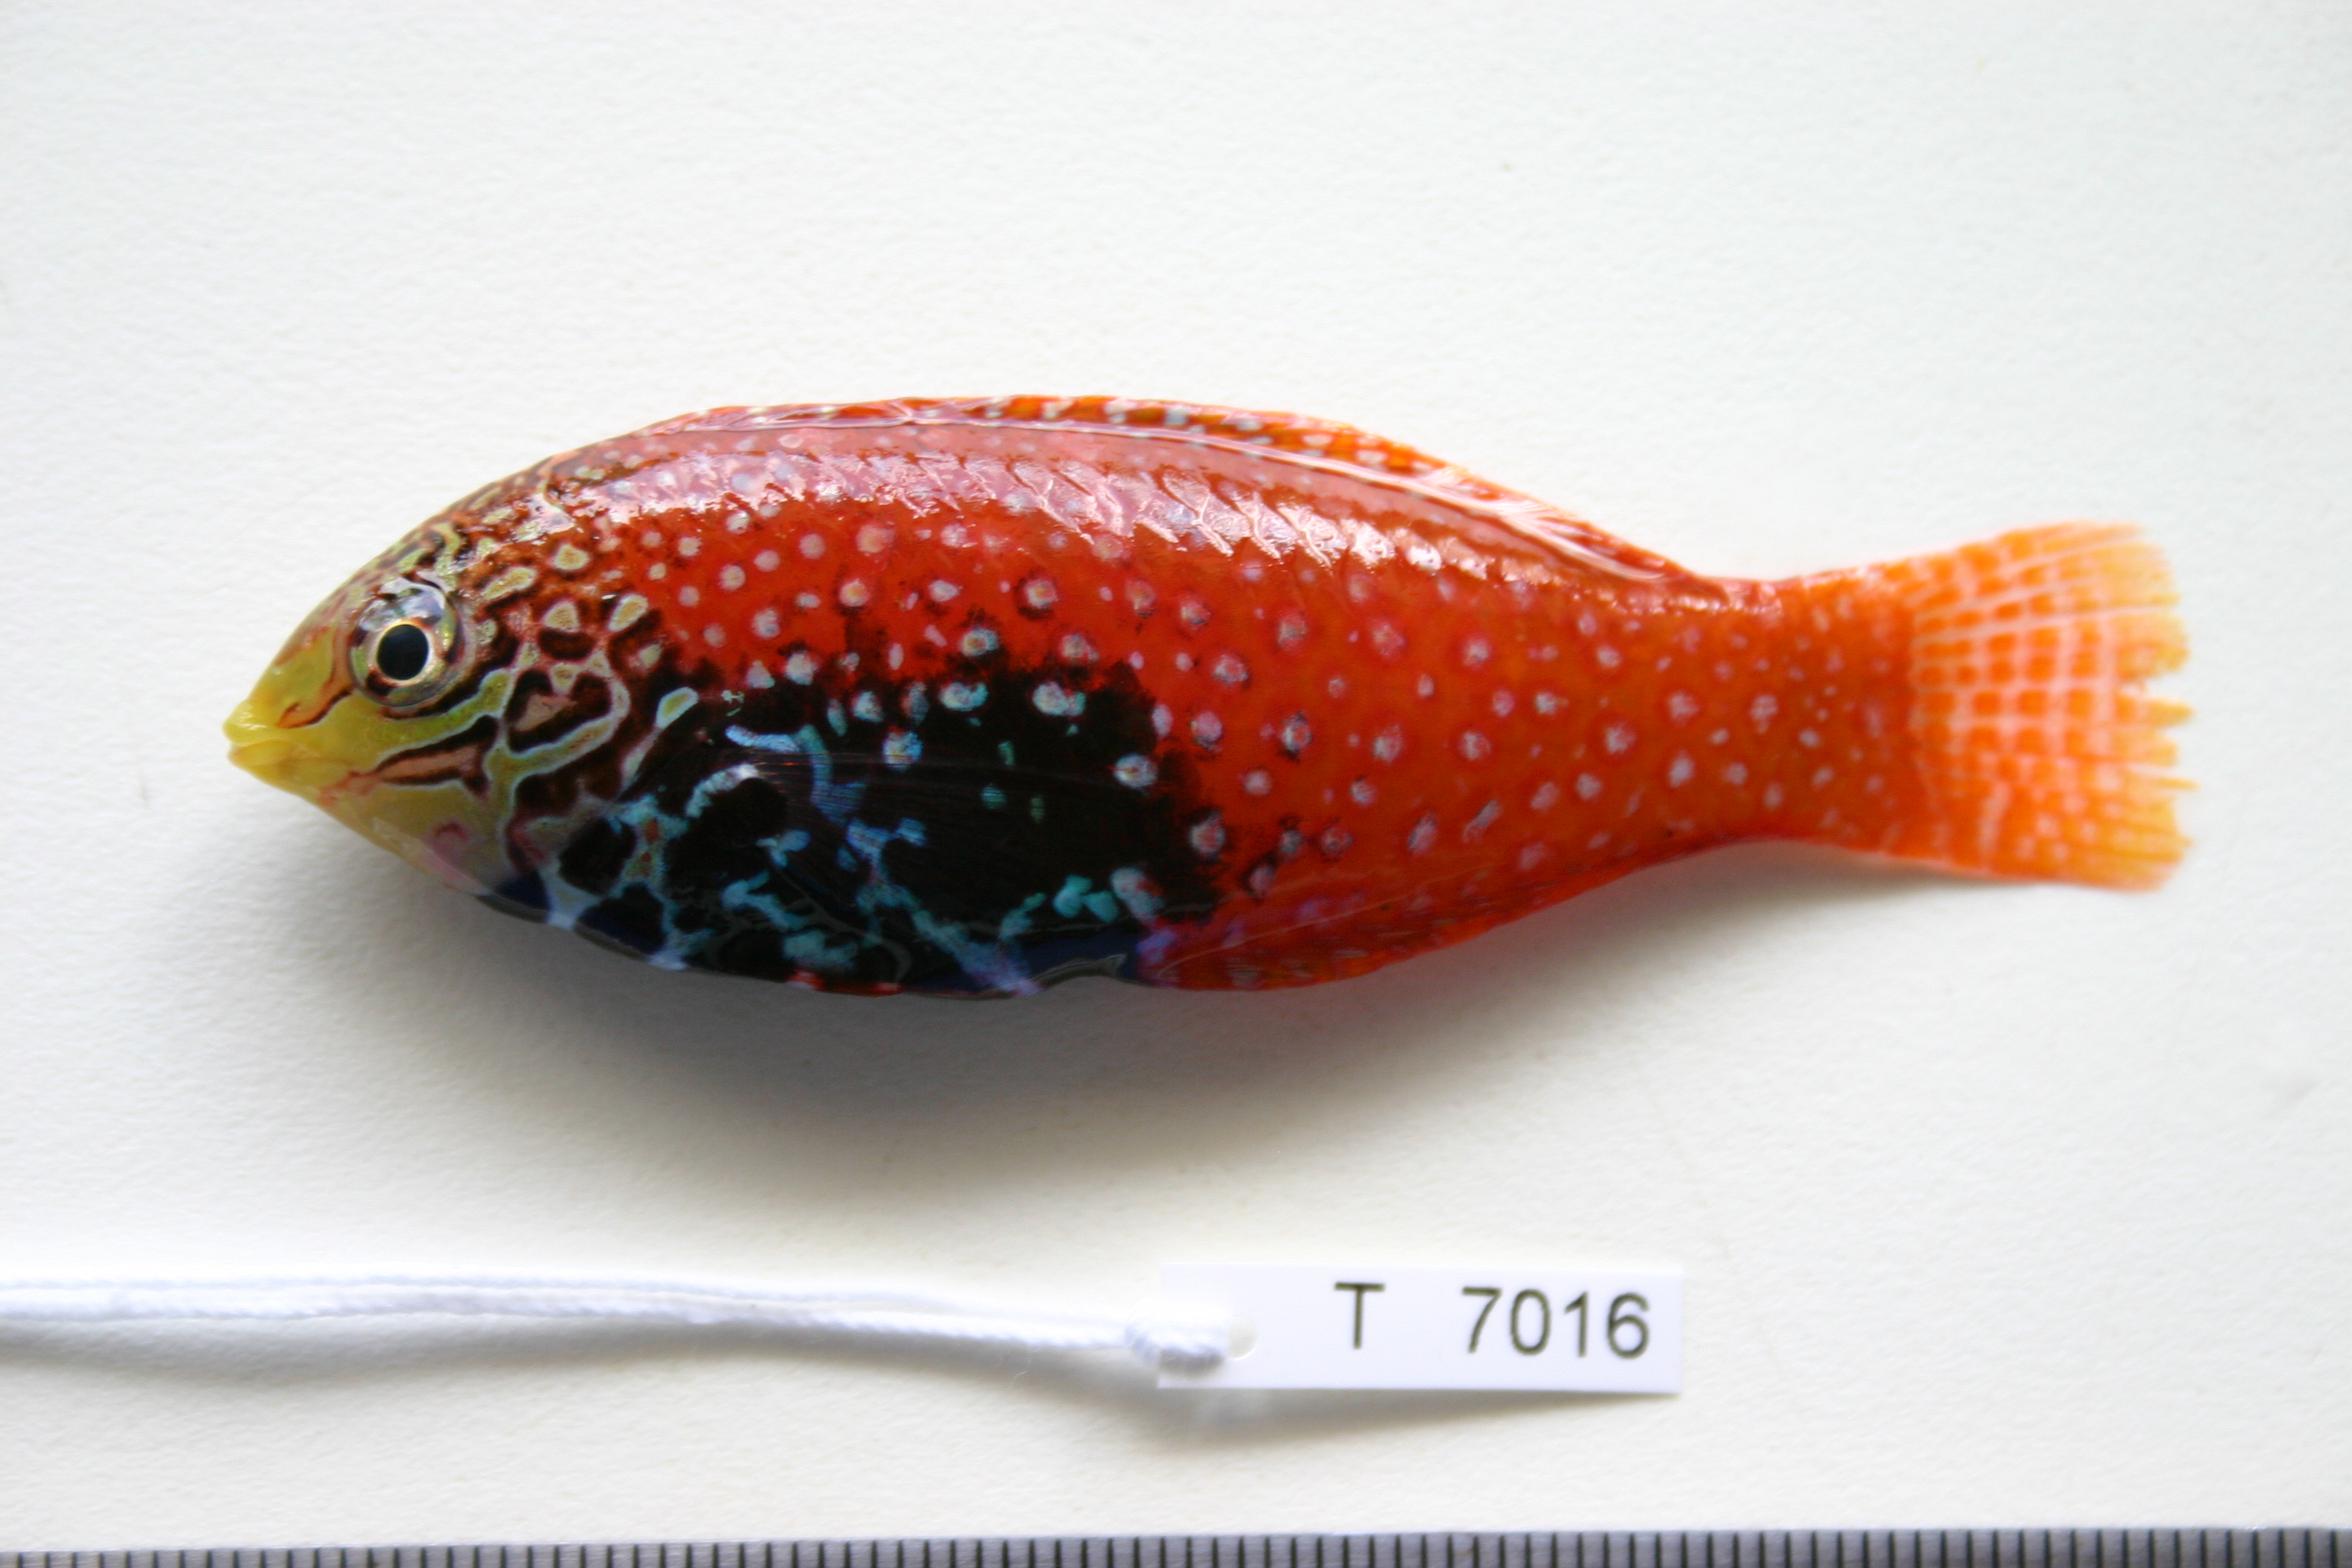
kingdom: Animalia
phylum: Chordata
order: Perciformes
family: Labridae
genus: Macropharyngodon
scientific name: Macropharyngodon bipartitus
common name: Divided wrasse
